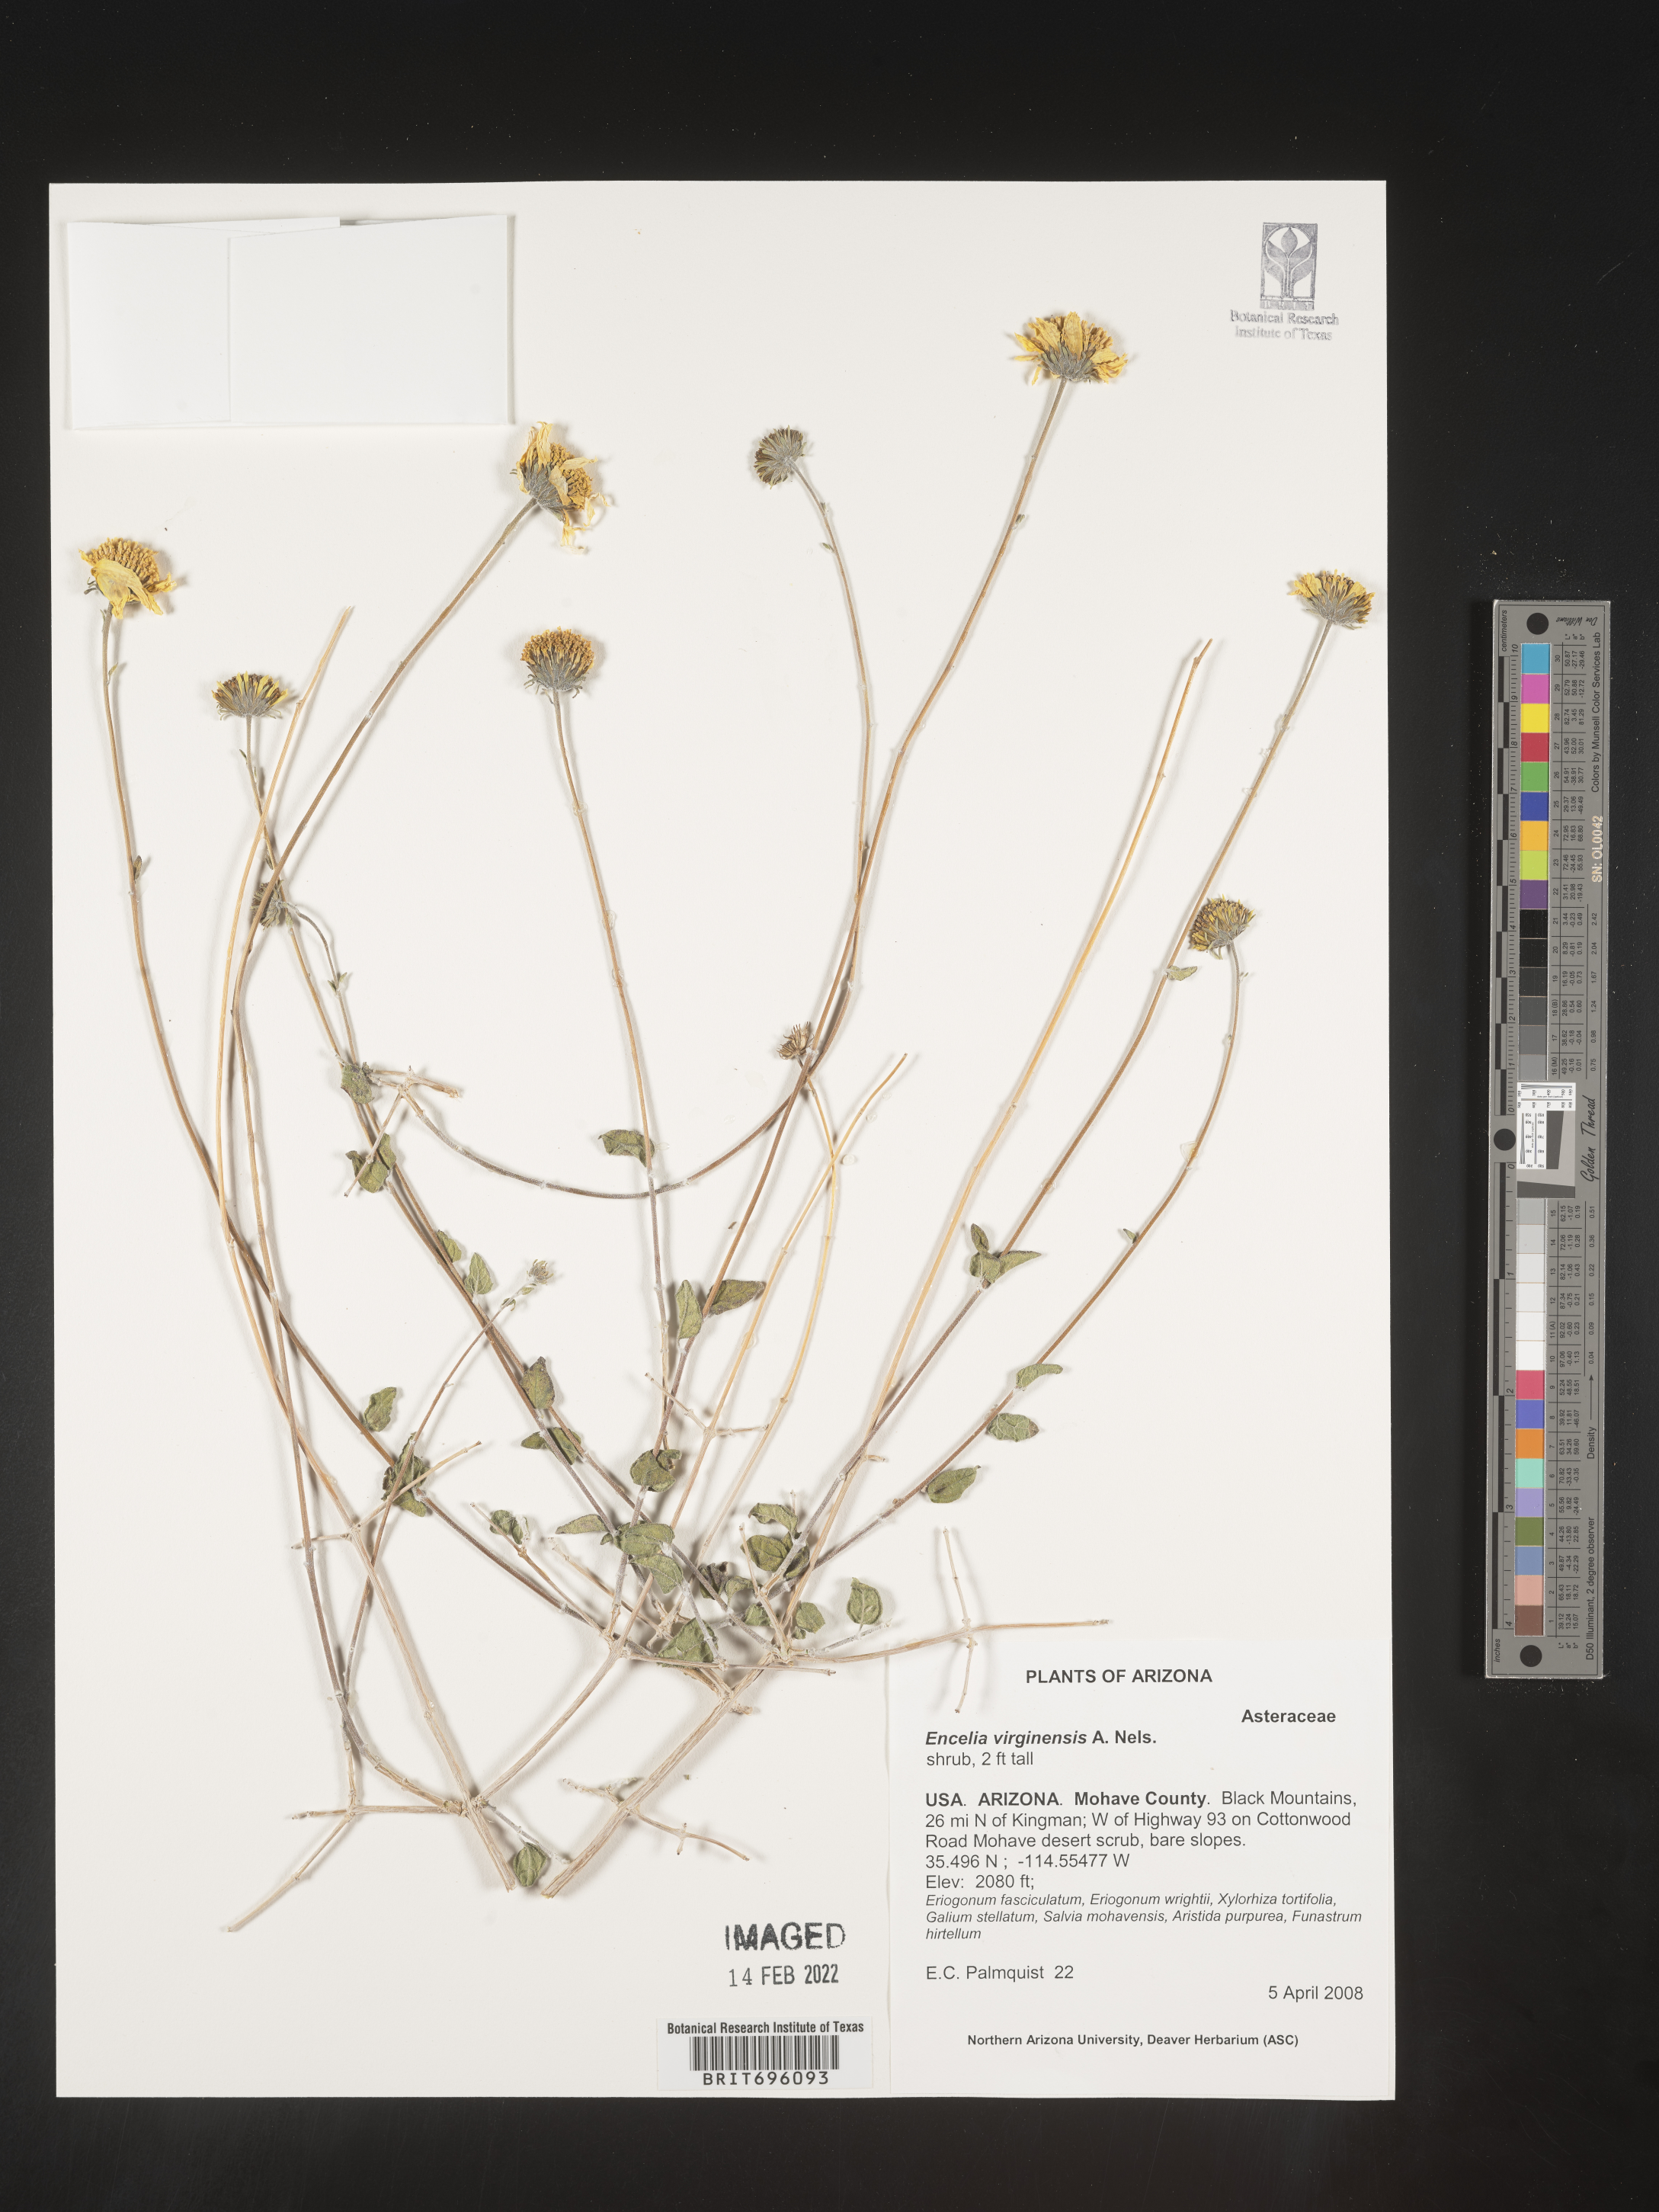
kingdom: Plantae
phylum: Tracheophyta
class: Magnoliopsida
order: Asterales
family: Asteraceae
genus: Encelia
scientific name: Encelia virginensis
